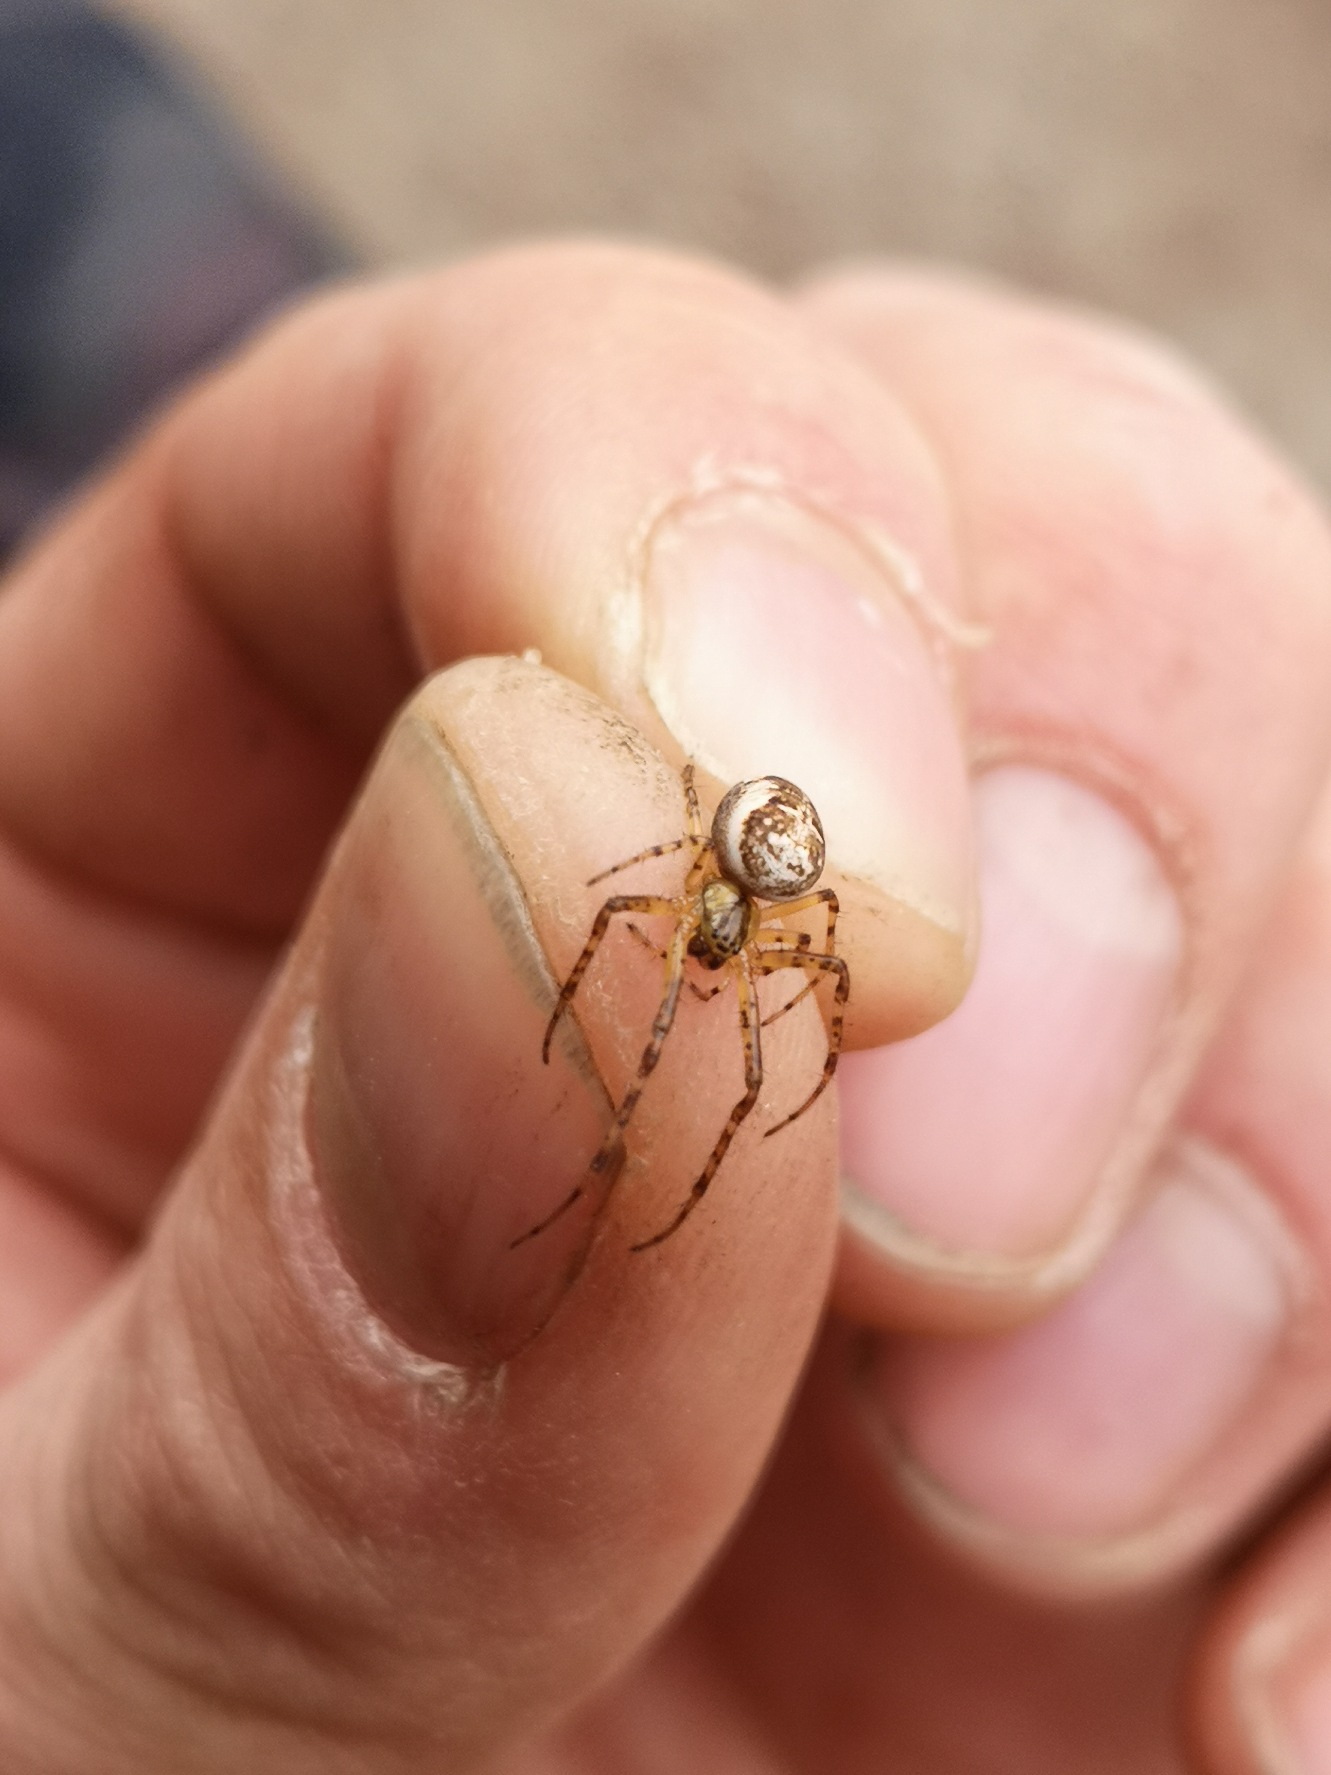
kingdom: Animalia
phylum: Arthropoda
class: Arachnida
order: Araneae
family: Tetragnathidae
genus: Metellina
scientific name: Metellina
